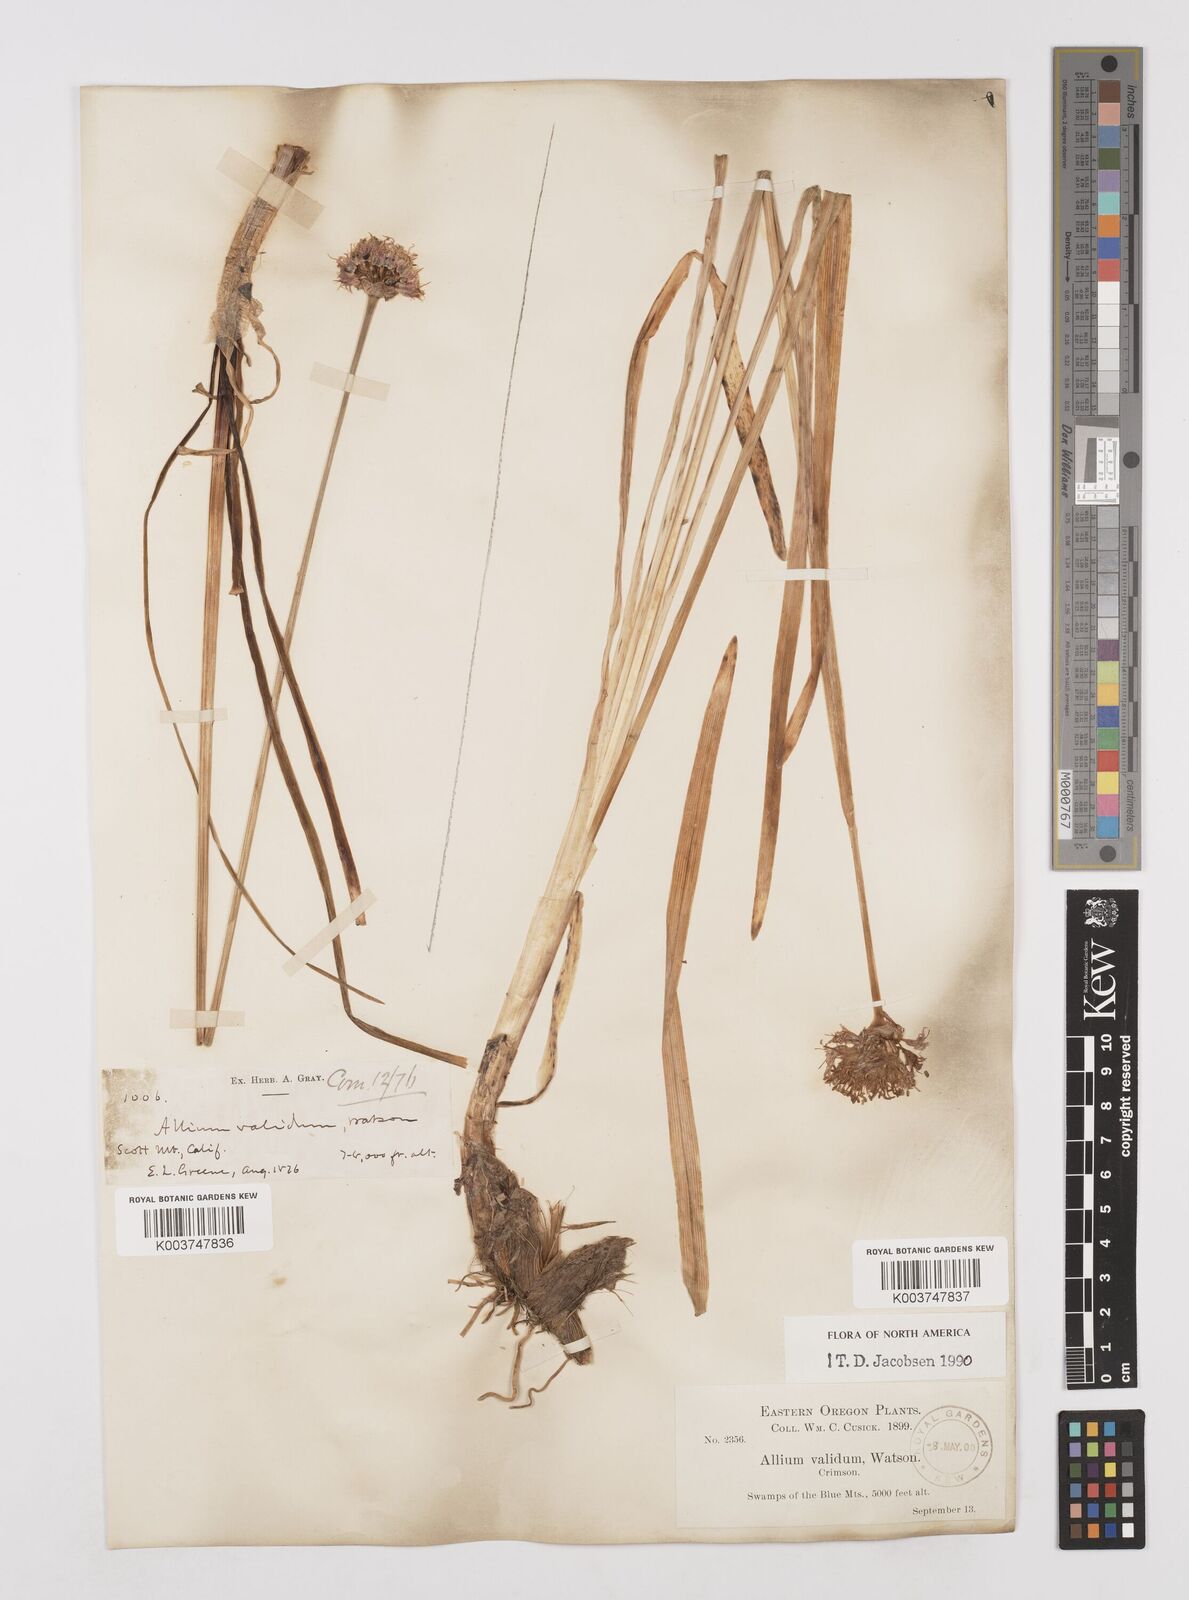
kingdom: Plantae
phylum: Tracheophyta
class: Liliopsida
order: Asparagales
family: Amaryllidaceae
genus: Allium
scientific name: Allium validum
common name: Pacific mountain onion
